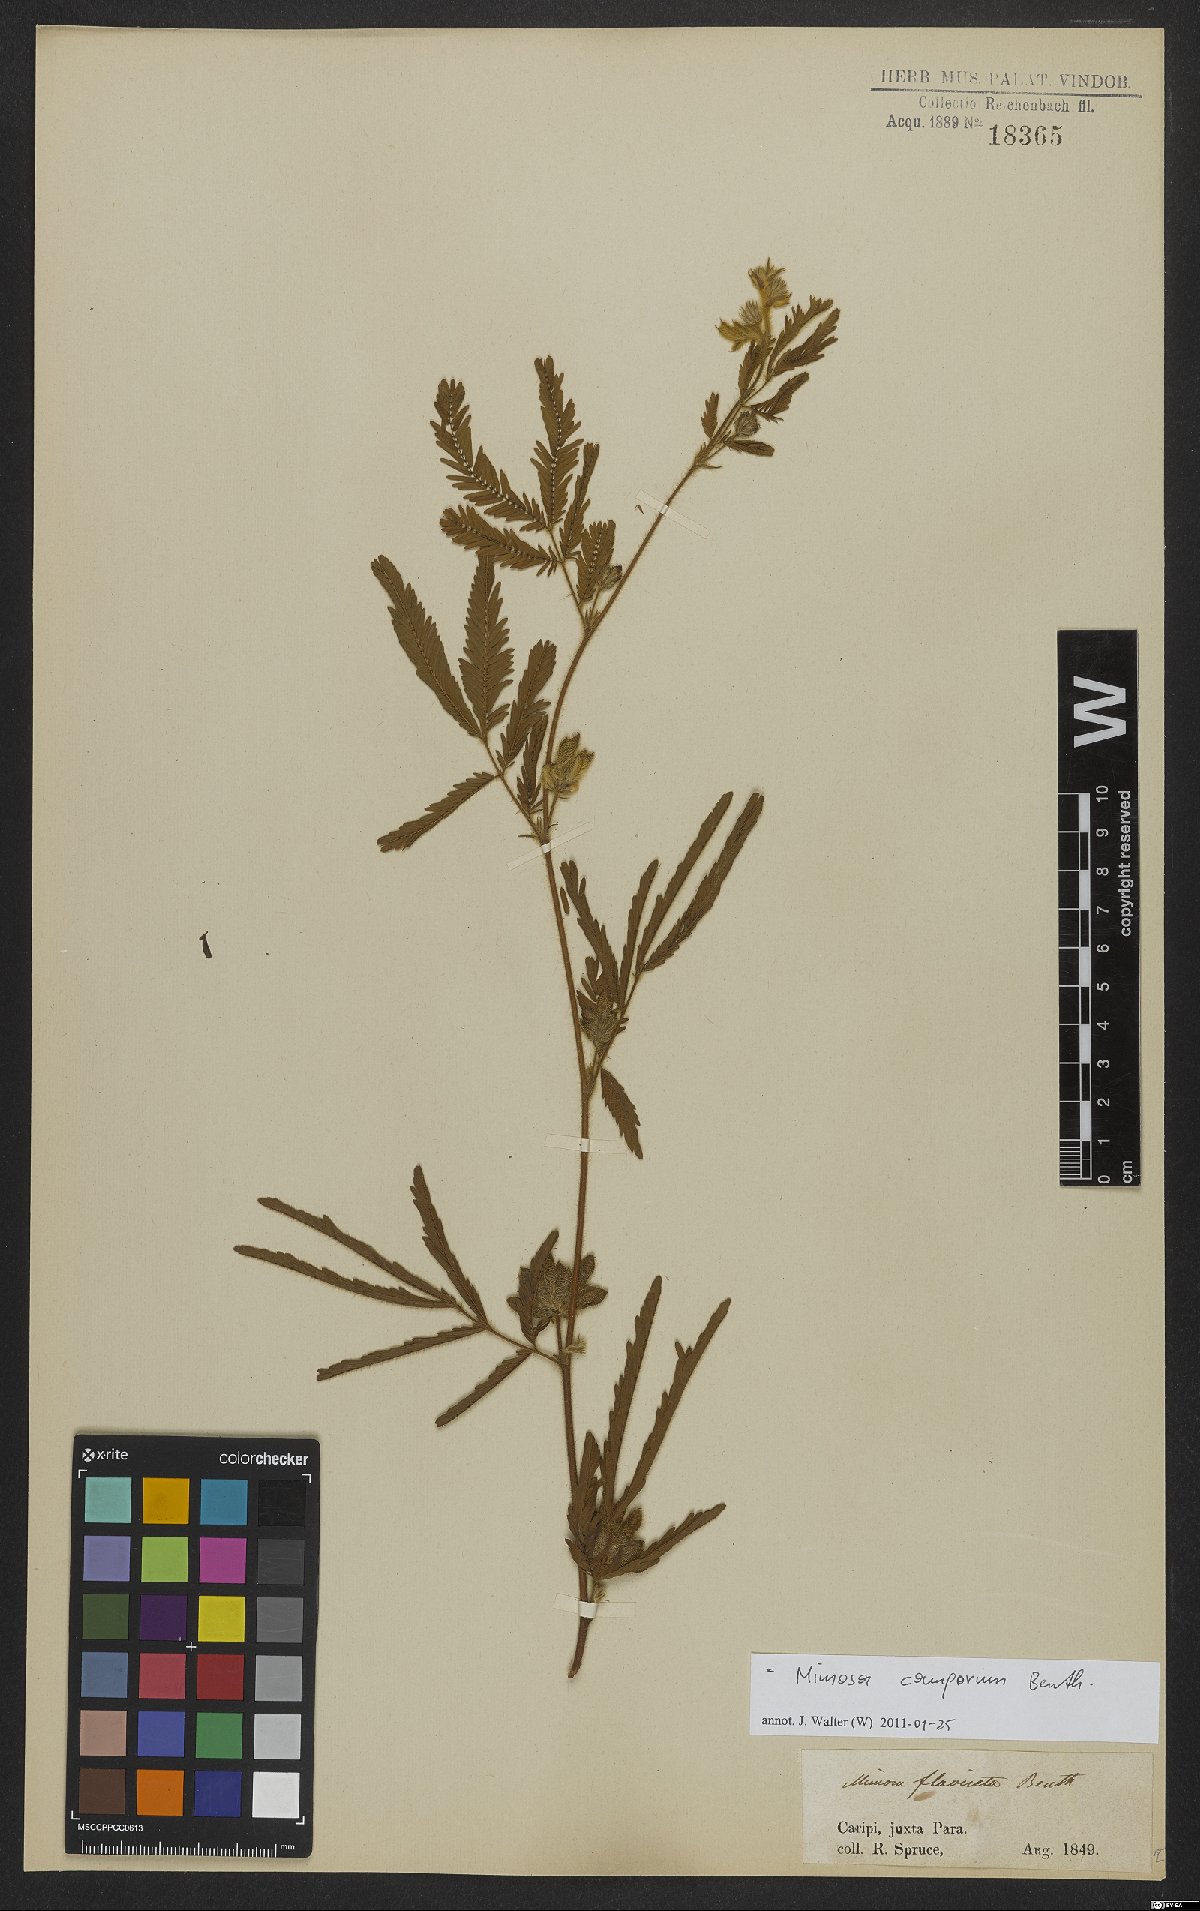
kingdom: Plantae
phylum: Tracheophyta
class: Magnoliopsida
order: Fabales
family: Fabaceae
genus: Mimosa
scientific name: Mimosa camporum
